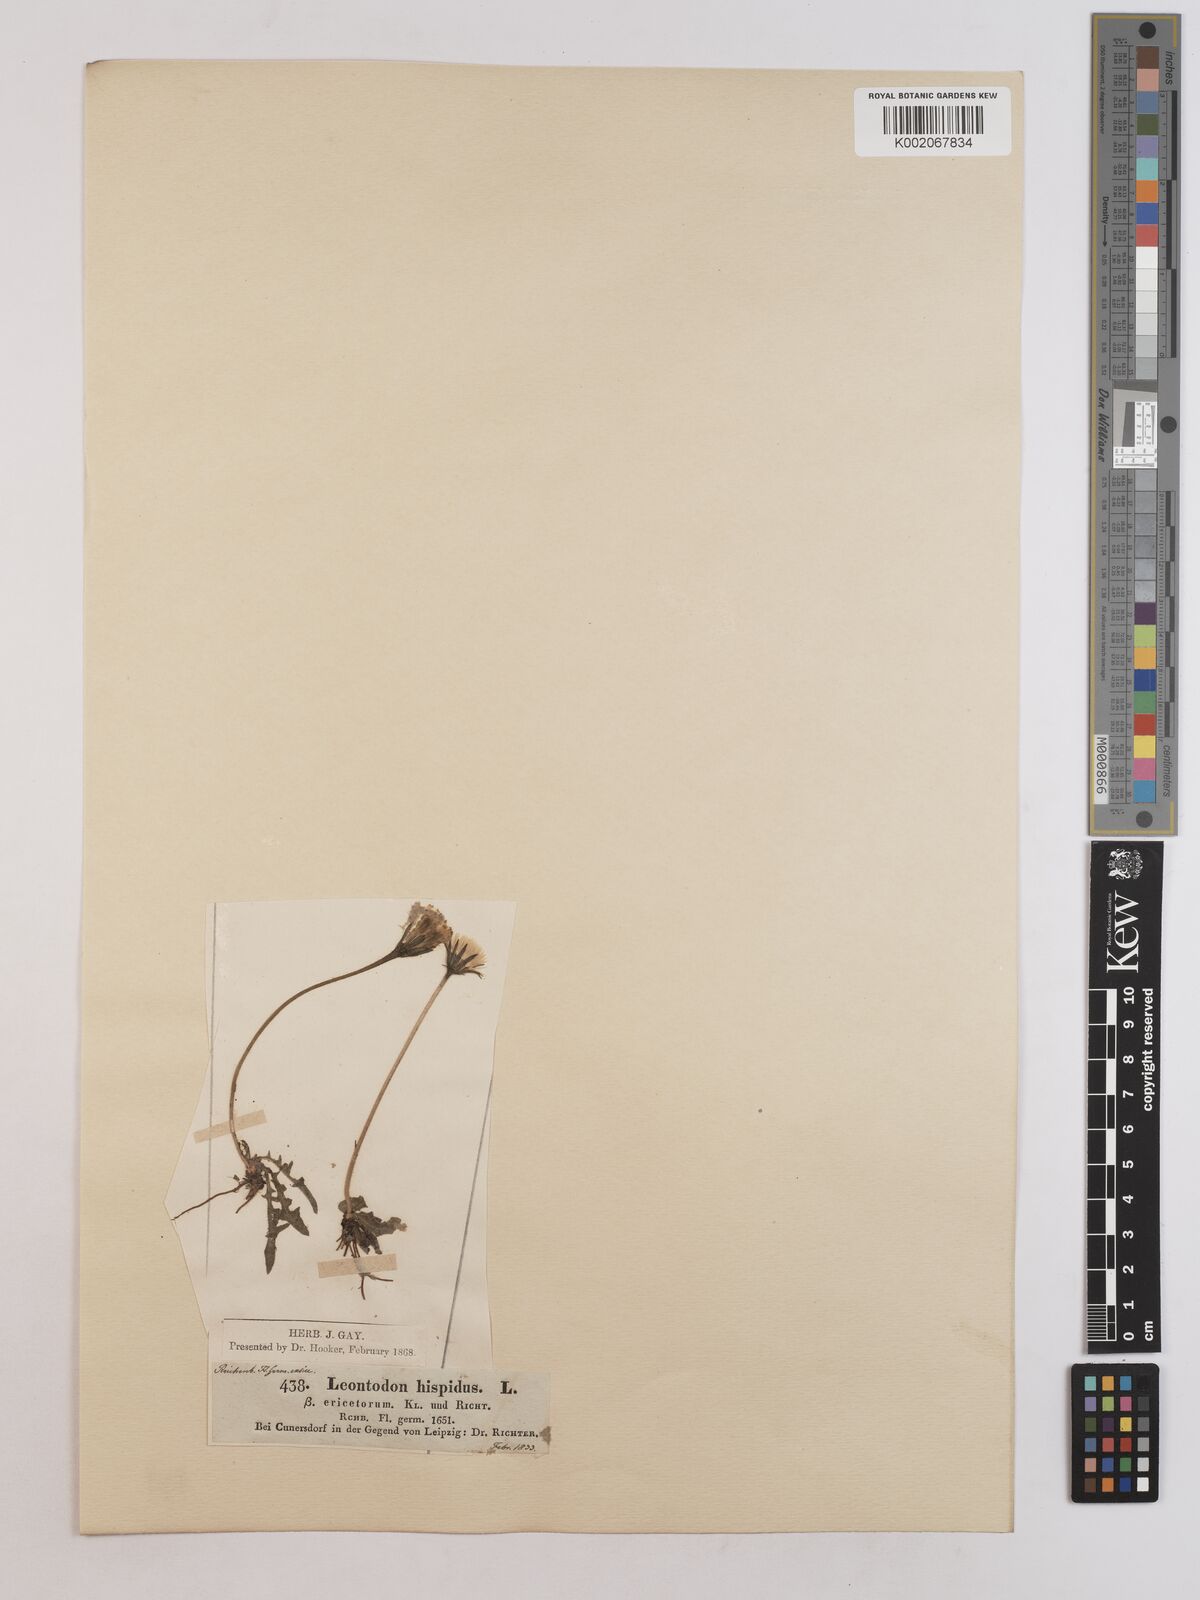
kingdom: Plantae
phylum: Tracheophyta
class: Magnoliopsida
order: Asterales
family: Asteraceae
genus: Leontodon
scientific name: Leontodon
